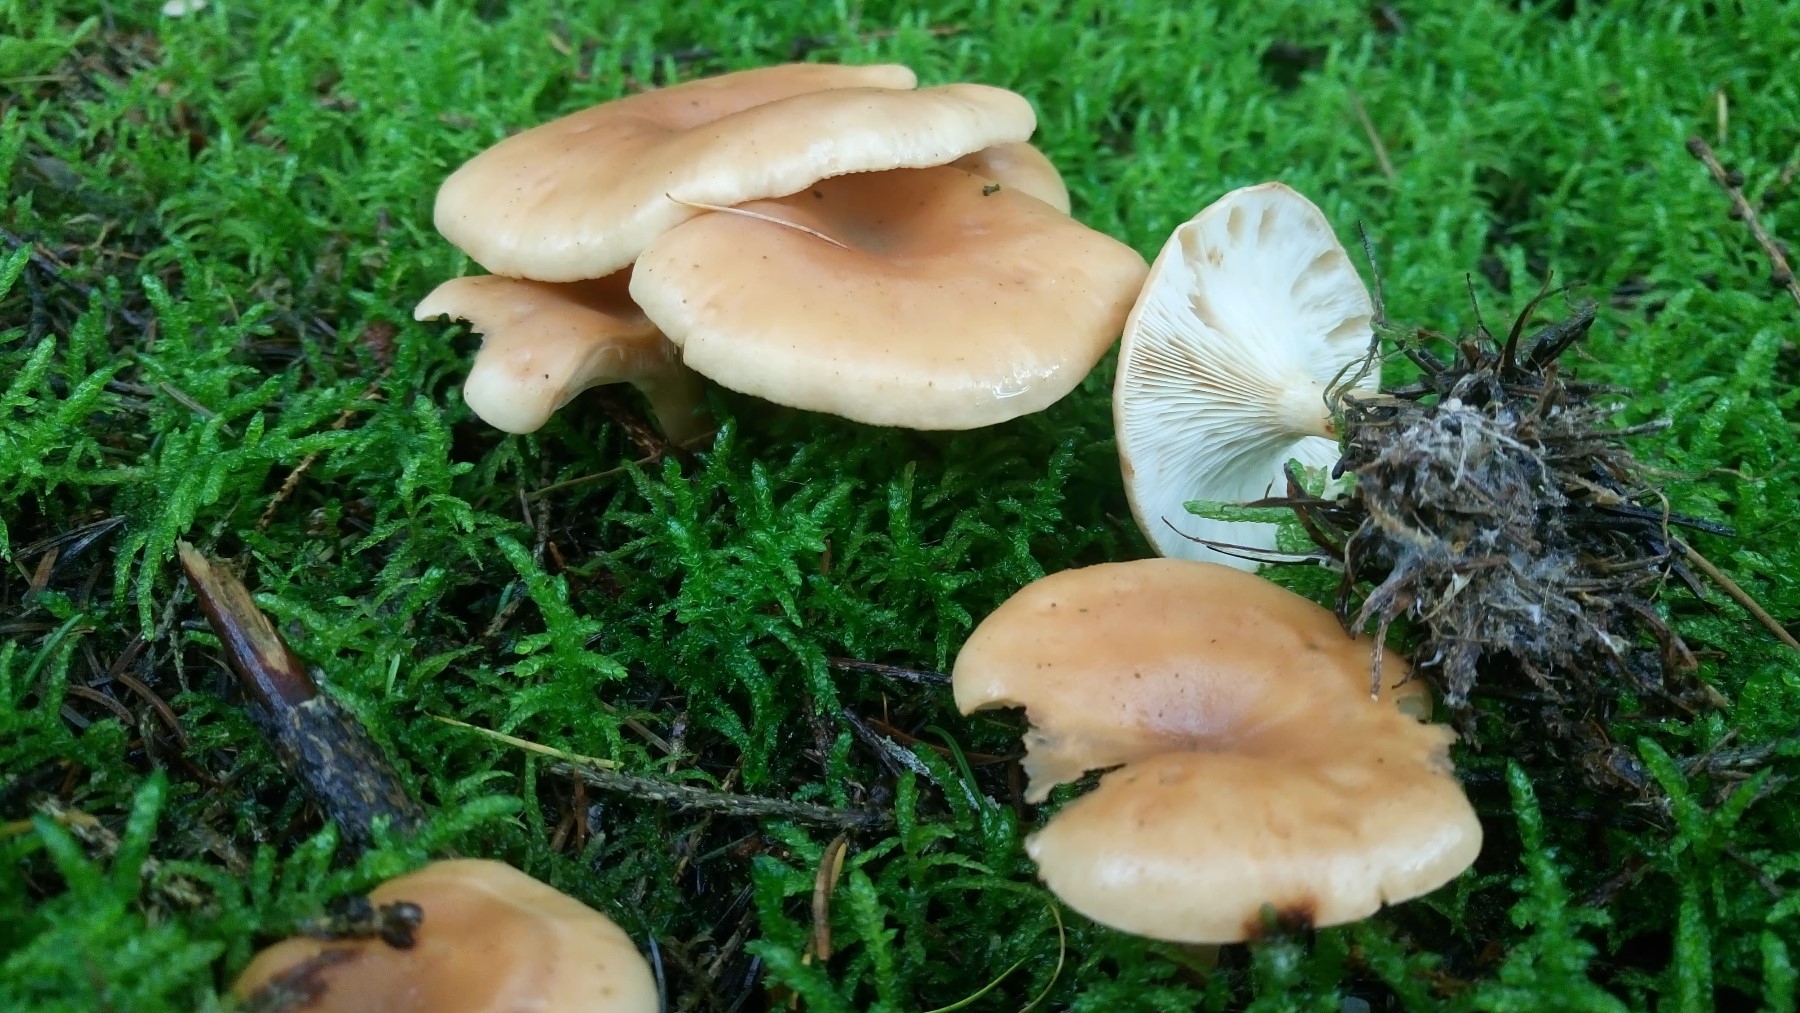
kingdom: Fungi
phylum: Basidiomycota
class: Agaricomycetes
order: Agaricales
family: Tricholomataceae
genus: Paralepista
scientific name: Paralepista flaccida
